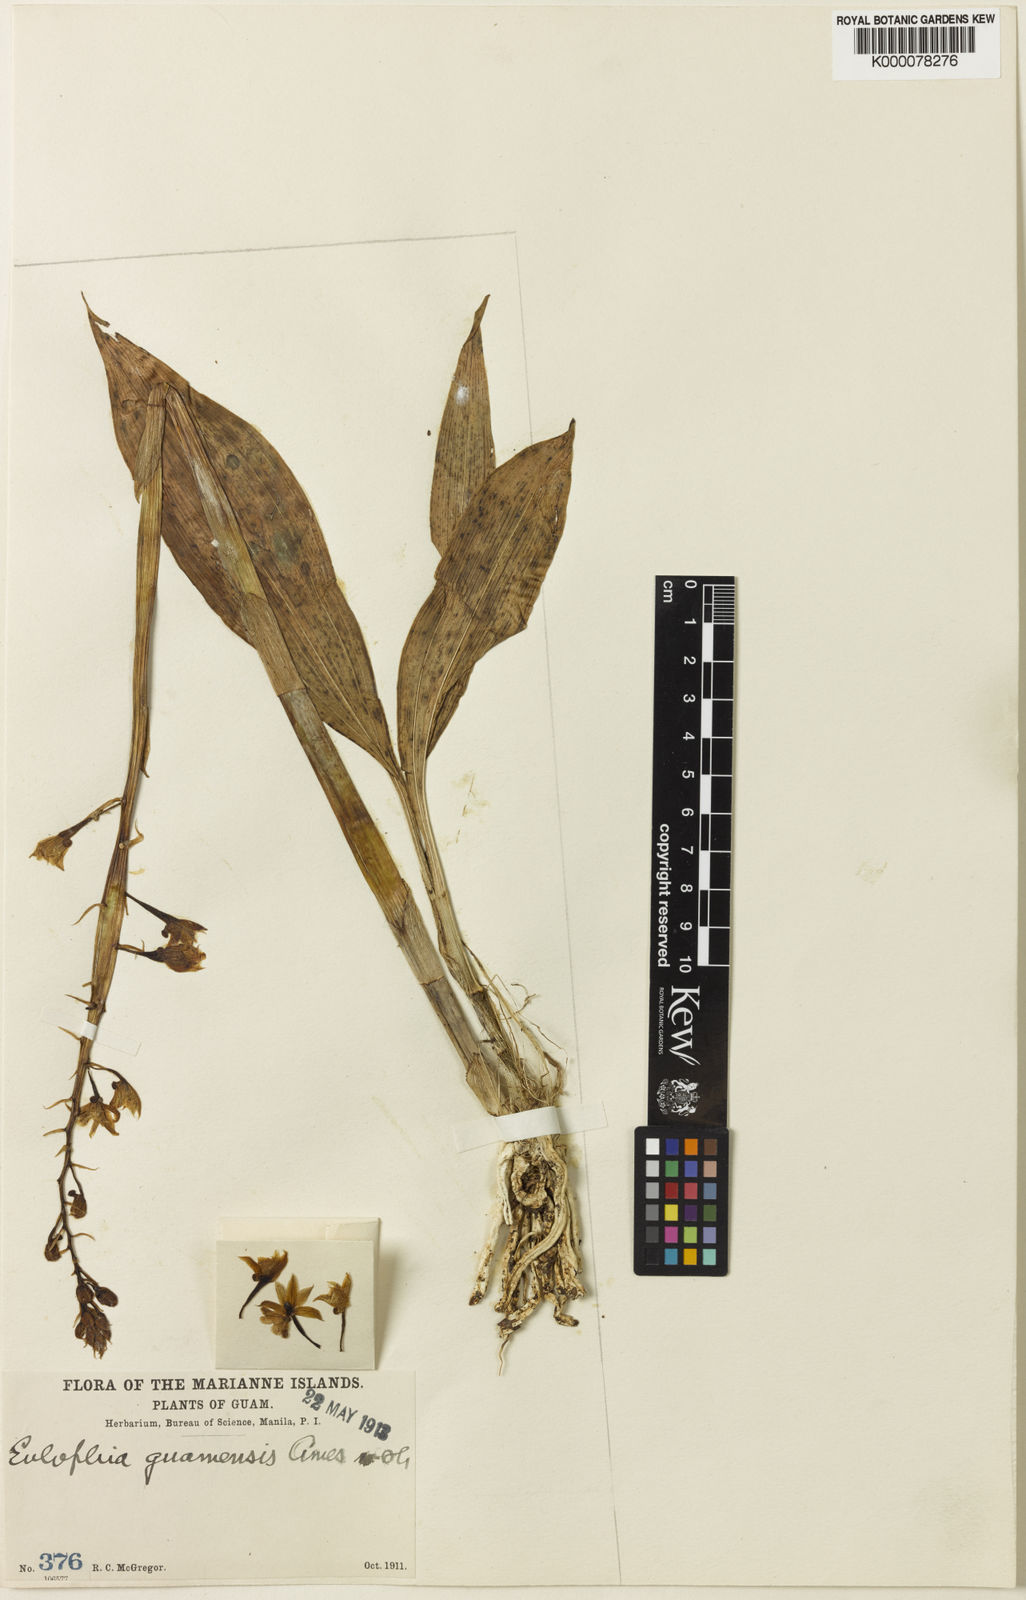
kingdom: Plantae
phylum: Tracheophyta
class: Liliopsida
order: Asparagales
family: Orchidaceae
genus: Eulophia
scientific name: Eulophia pulchra
